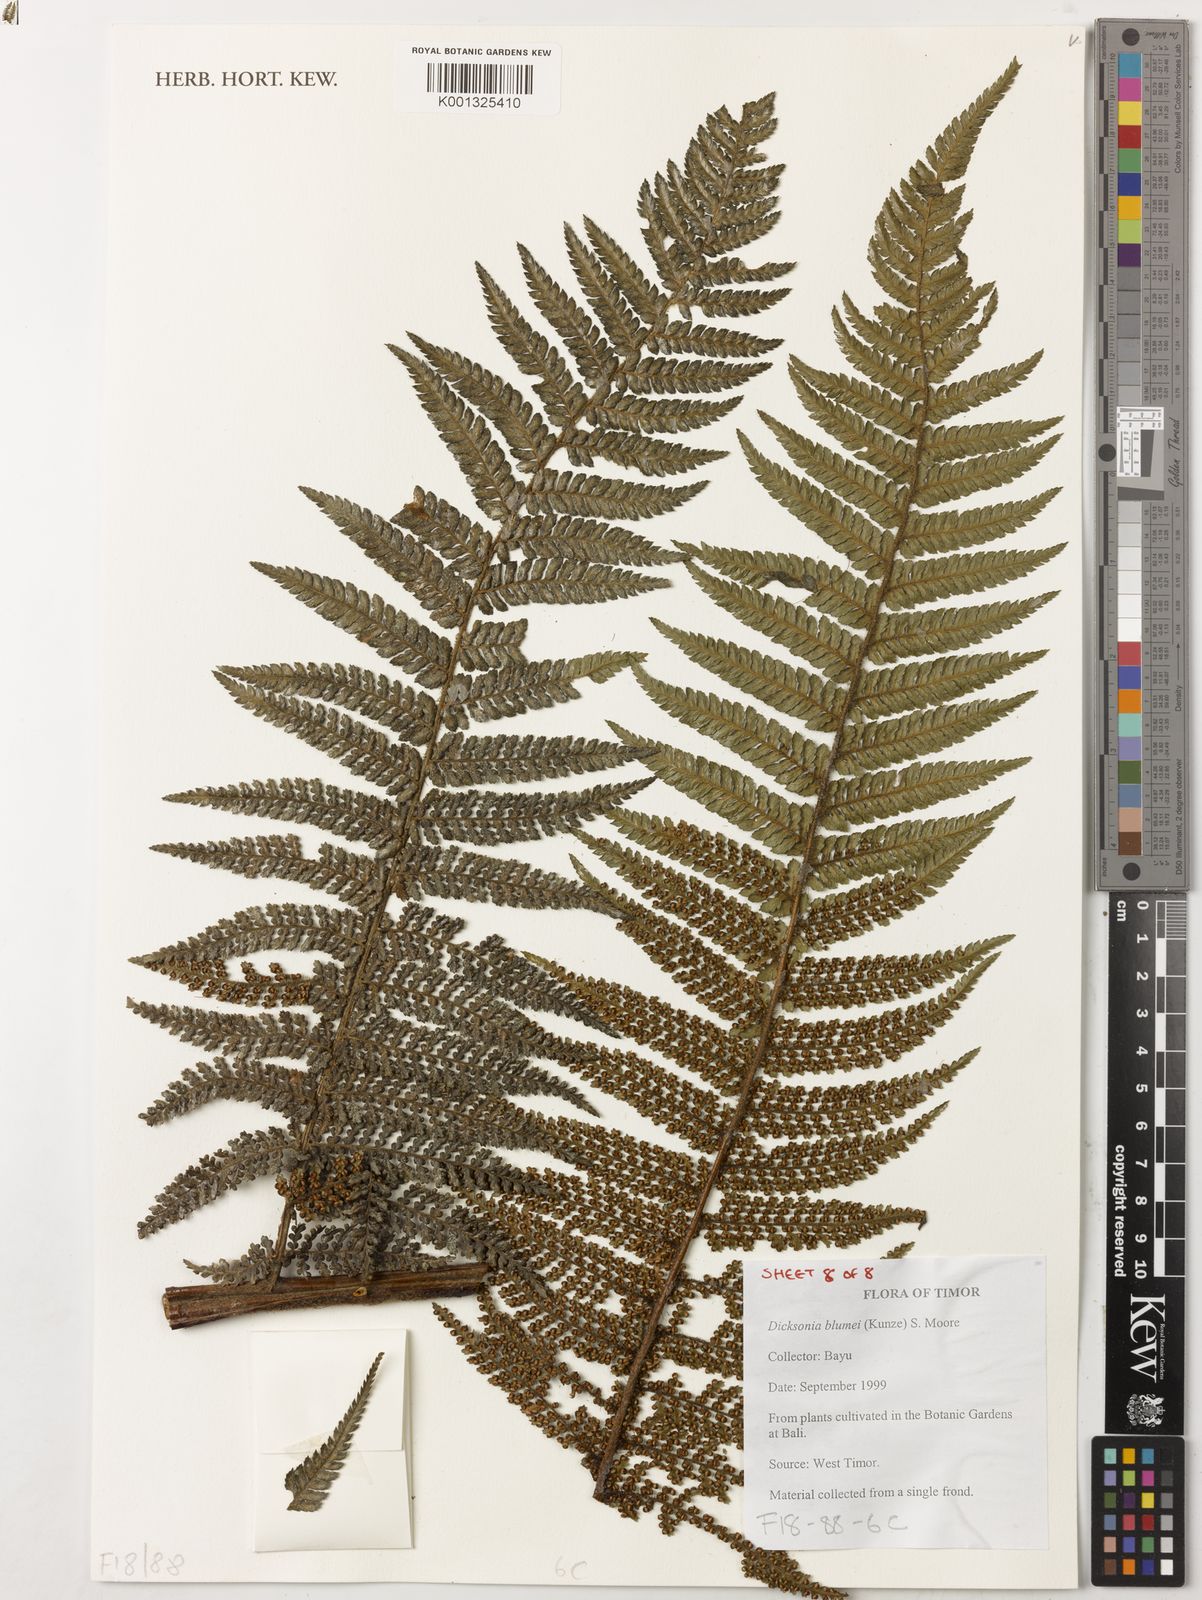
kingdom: Plantae
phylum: Tracheophyta
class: Polypodiopsida
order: Cyatheales
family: Dicksoniaceae
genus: Dicksonia
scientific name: Dicksonia
